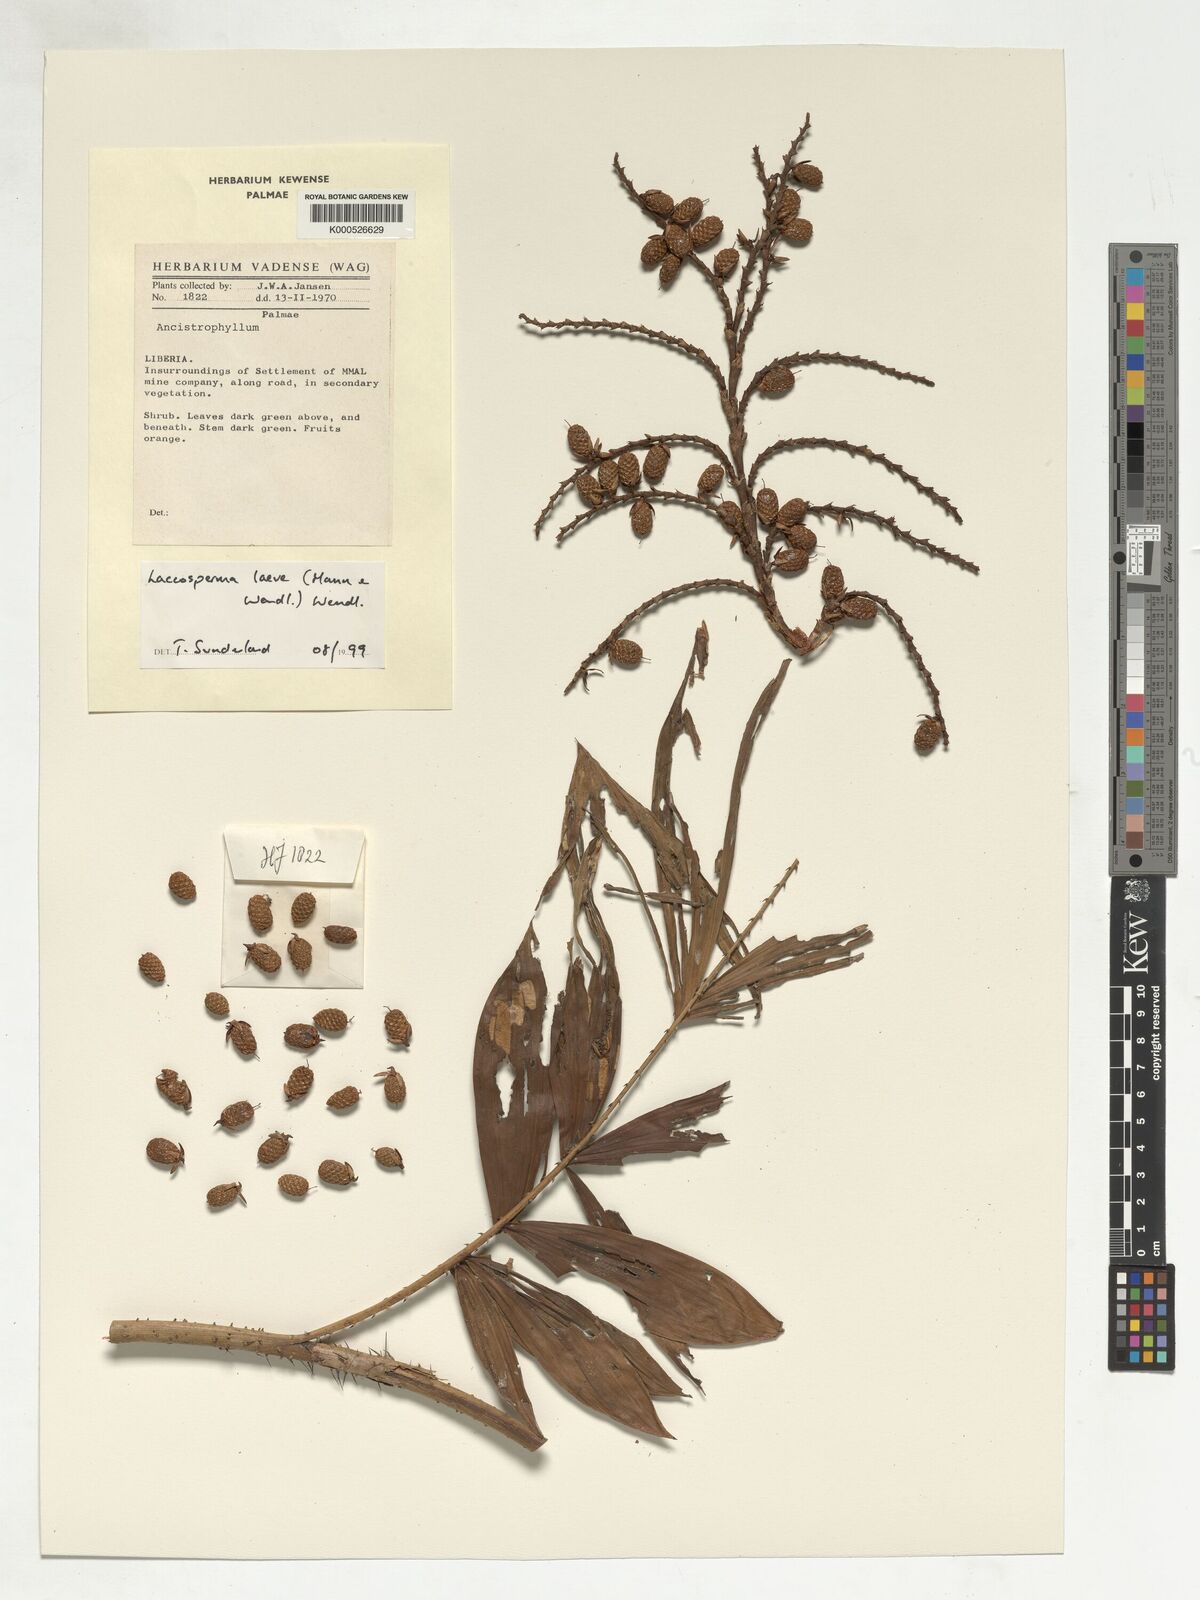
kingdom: Plantae
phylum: Tracheophyta
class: Liliopsida
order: Arecales
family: Arecaceae
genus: Laccosperma
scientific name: Laccosperma laeve
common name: Rattan
